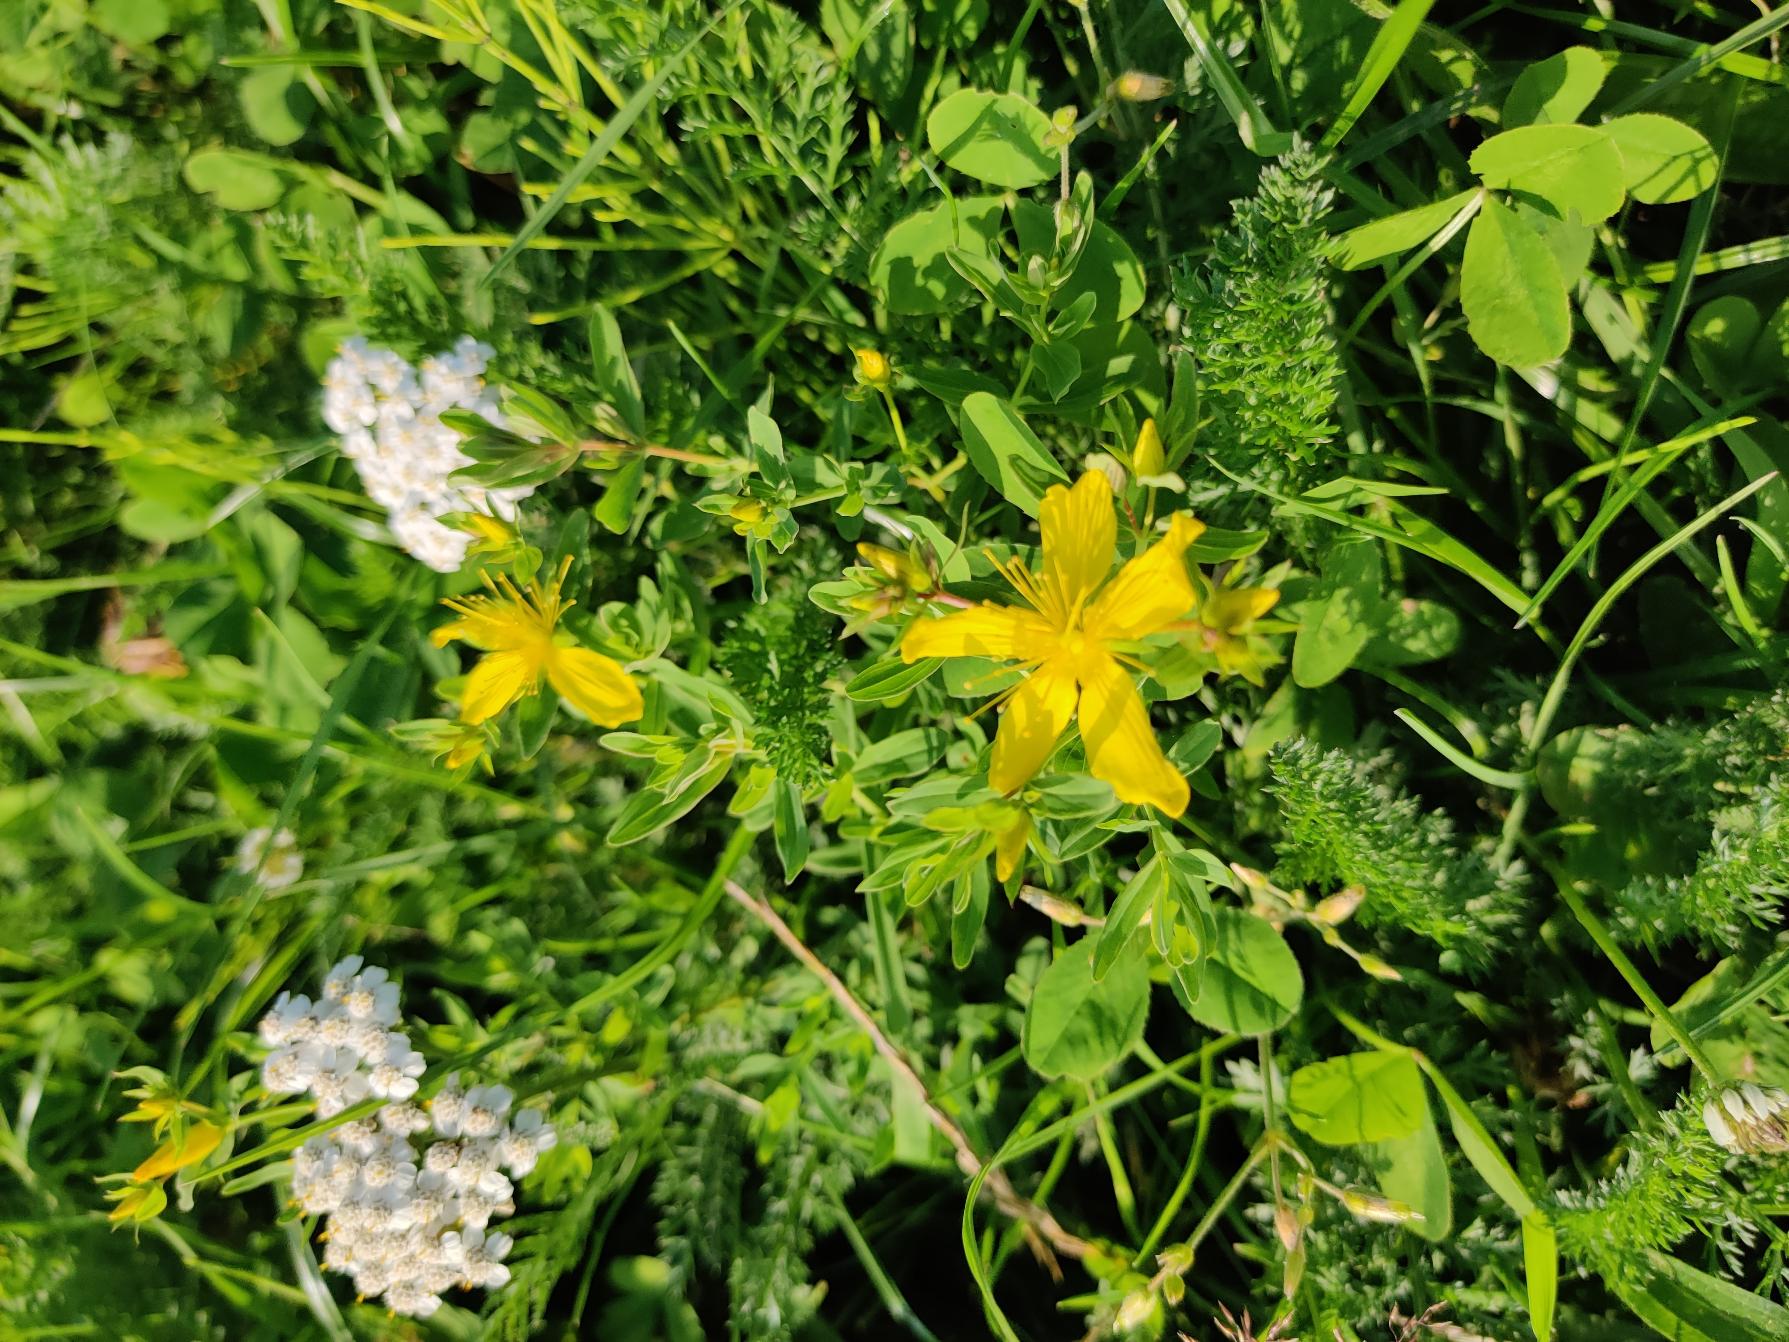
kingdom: Plantae
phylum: Tracheophyta
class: Magnoliopsida
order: Malpighiales
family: Hypericaceae
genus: Hypericum
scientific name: Hypericum perforatum
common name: Prikbladet perikon
